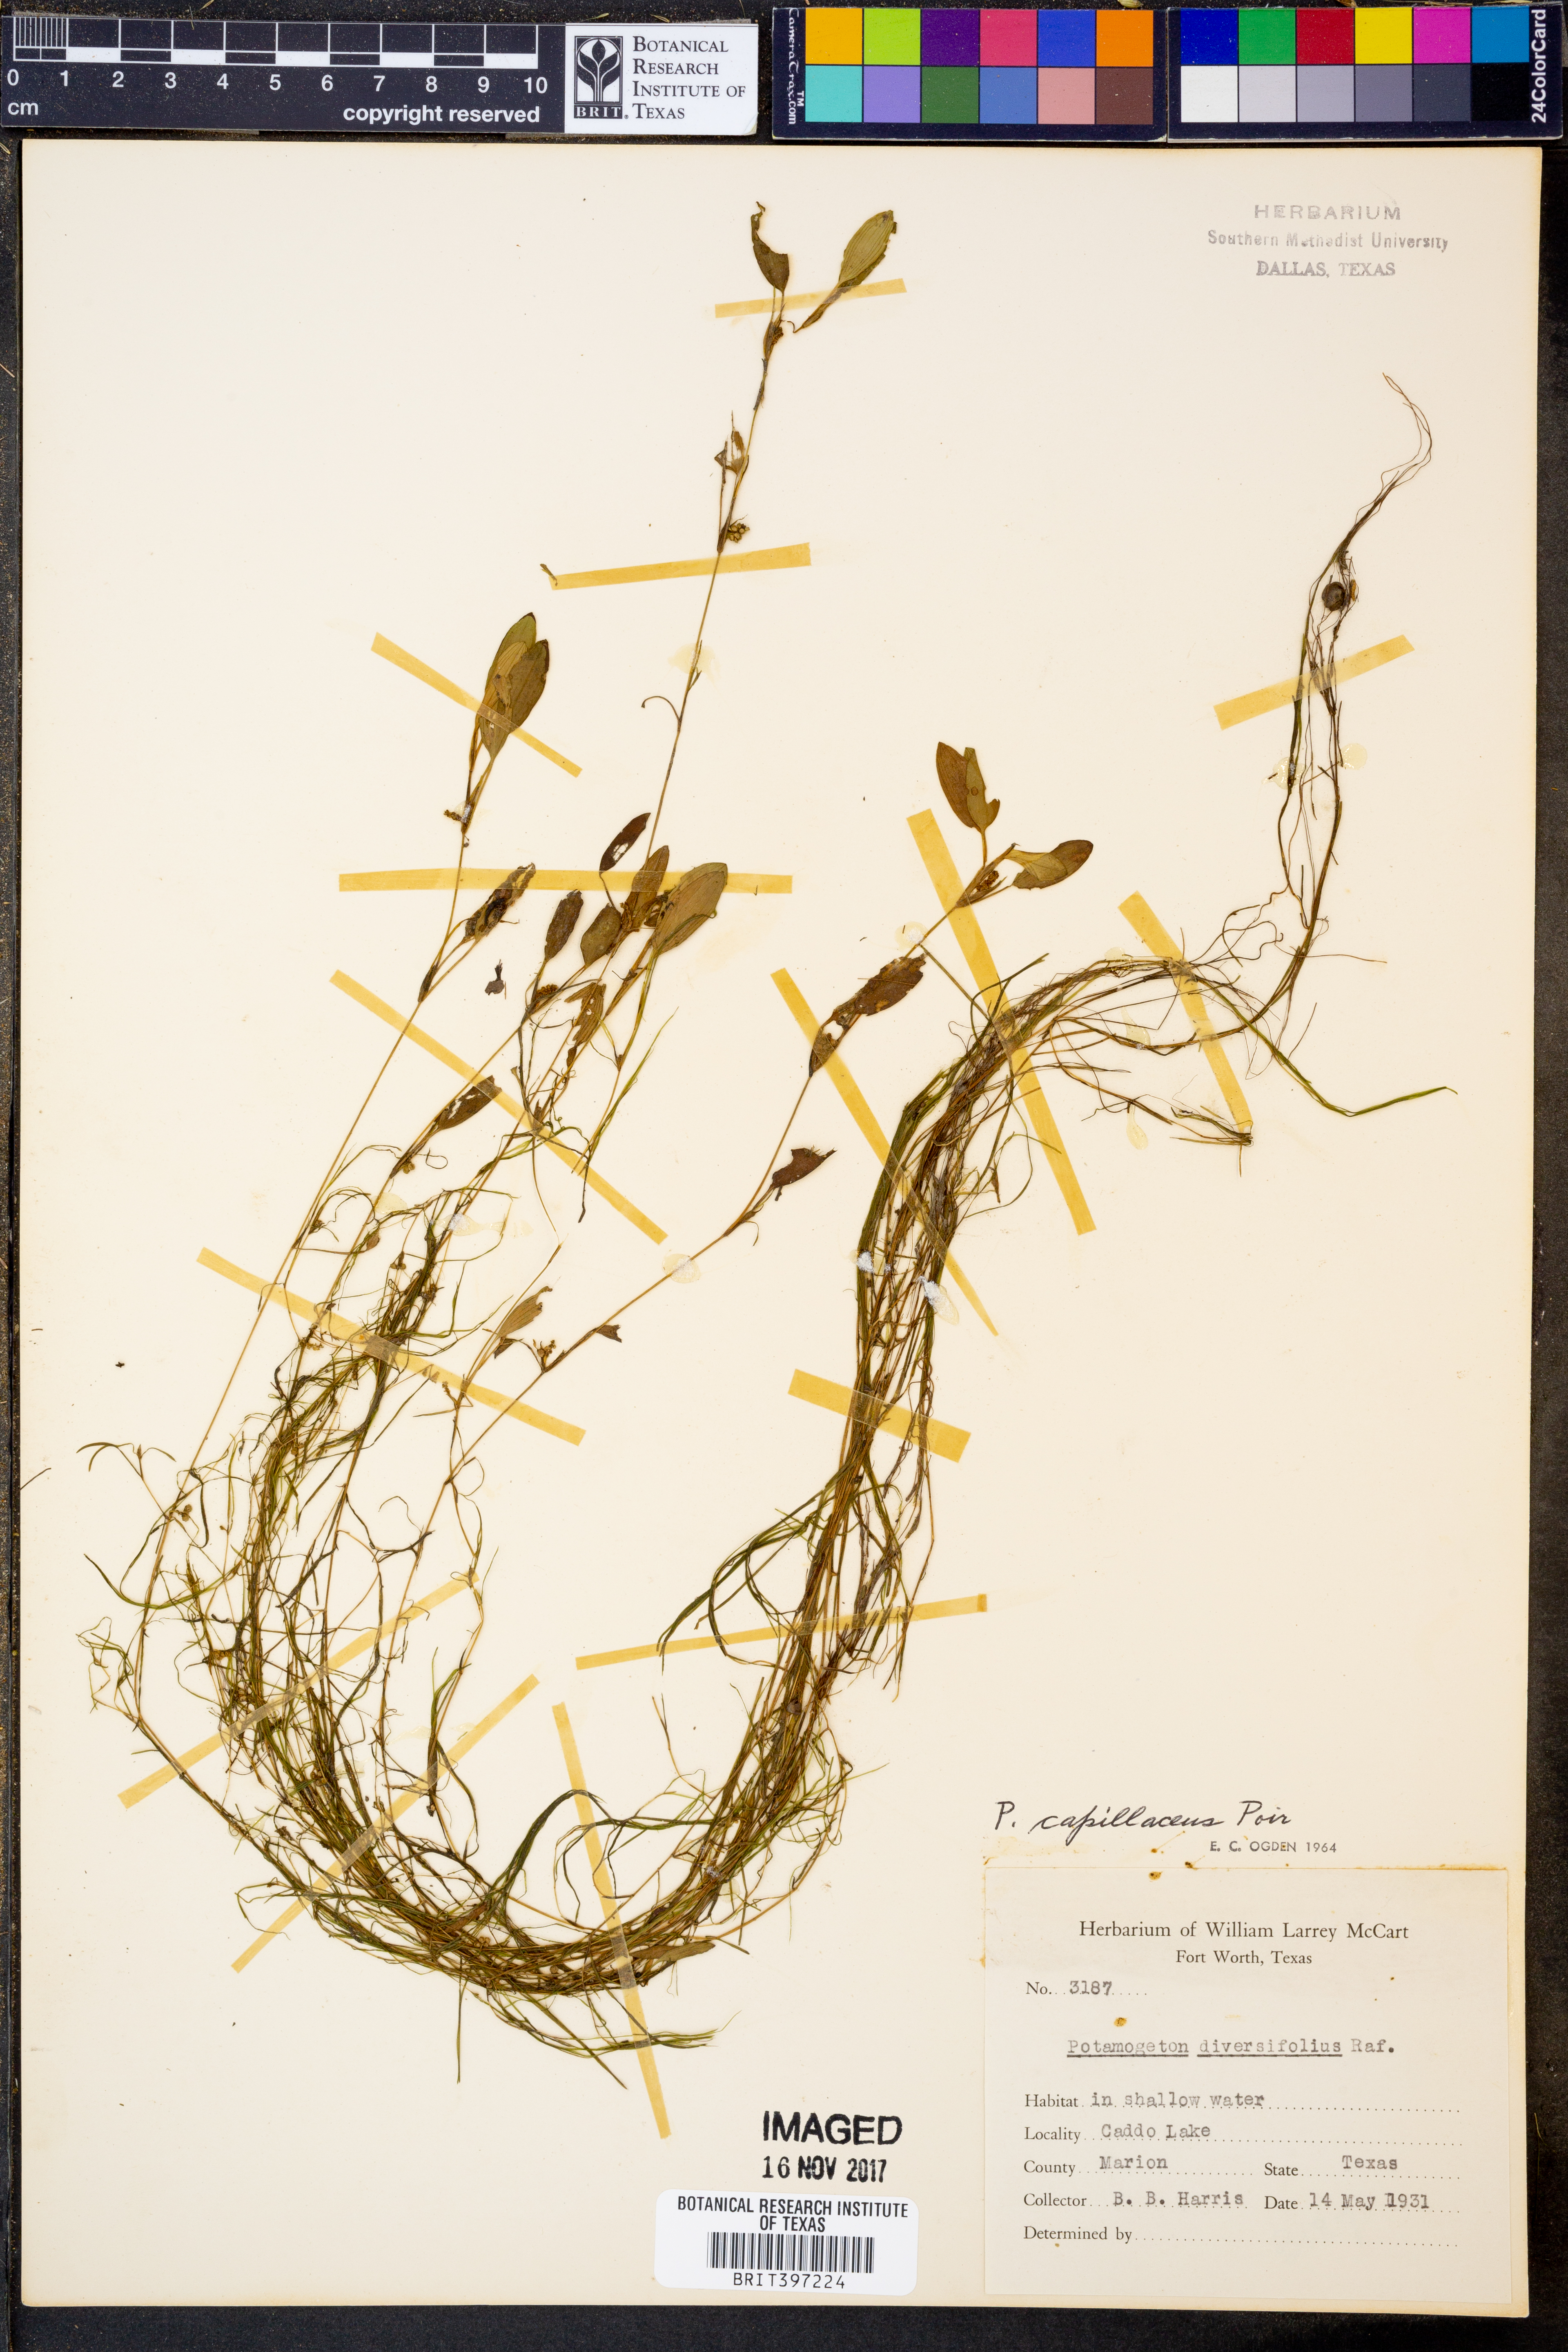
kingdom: Plantae
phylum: Tracheophyta
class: Liliopsida
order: Alismatales
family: Potamogetonaceae
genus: Potamogeton
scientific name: Potamogeton diversifolius
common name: Water-thread pondweed
